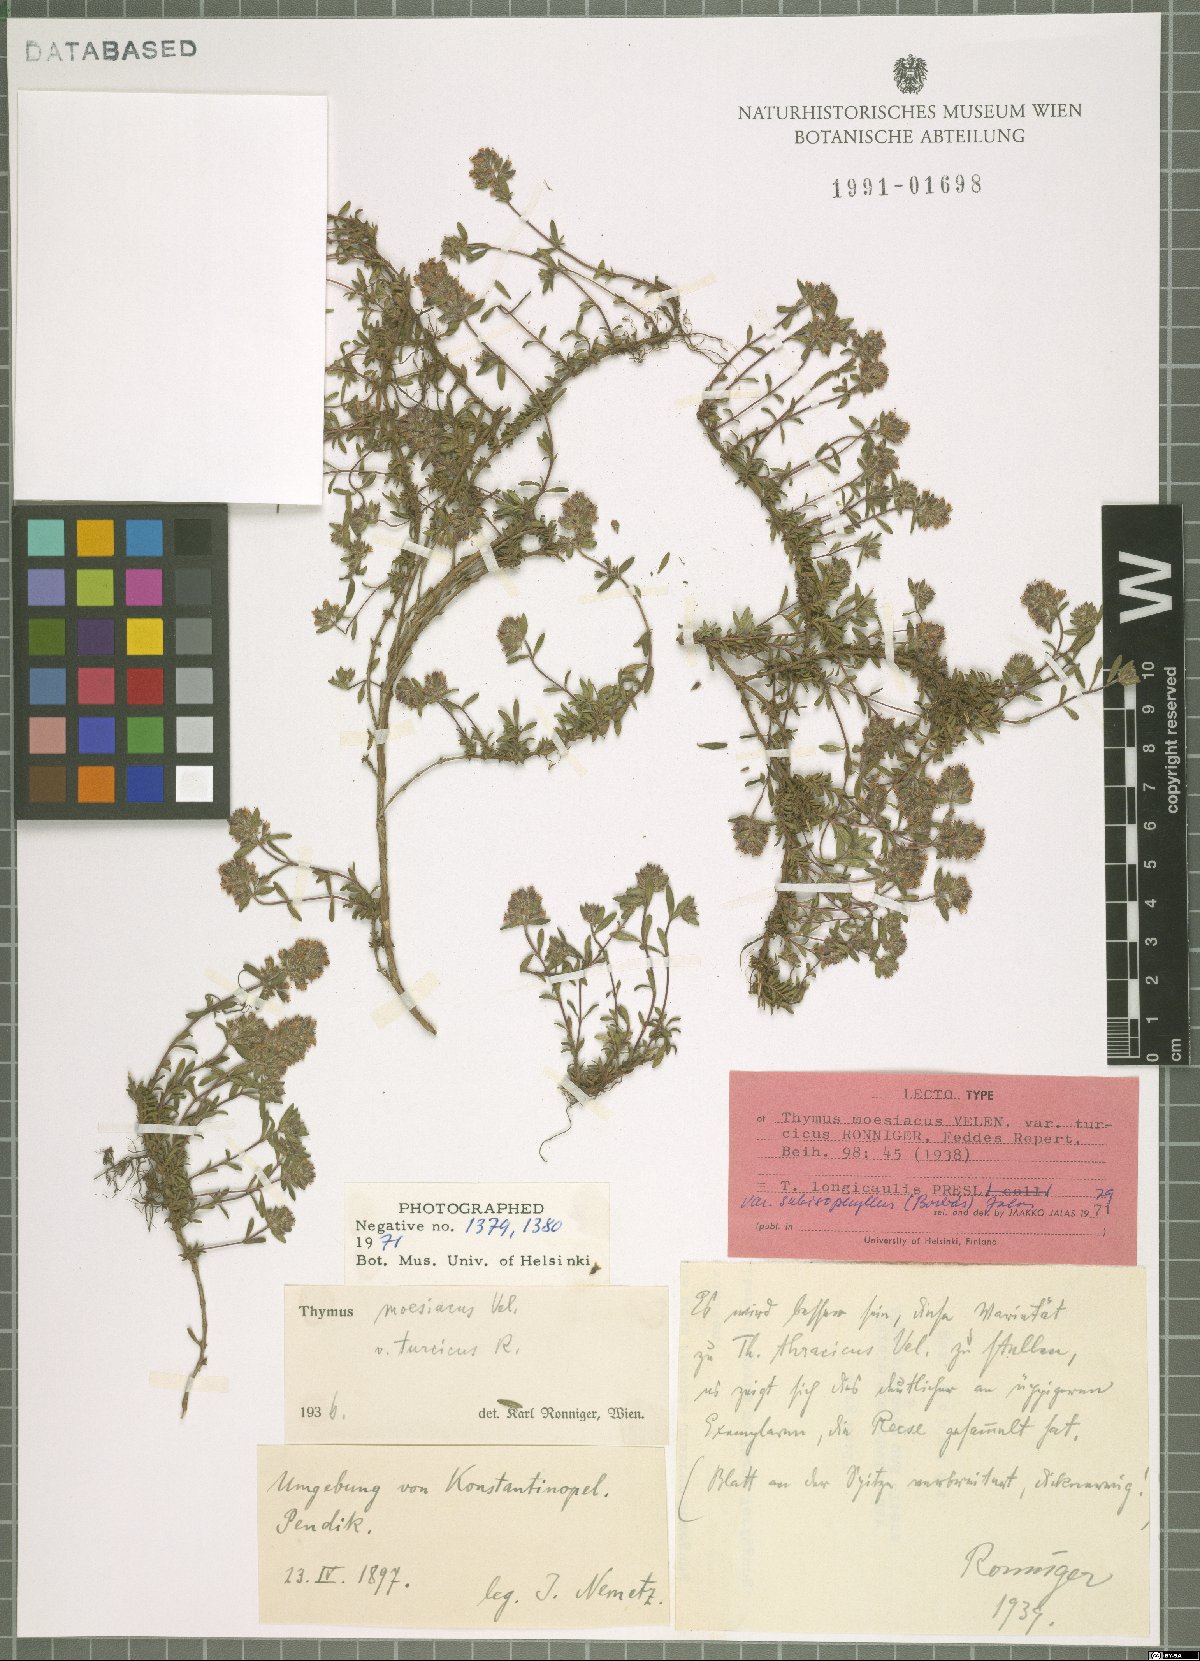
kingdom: Plantae
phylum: Tracheophyta
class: Magnoliopsida
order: Lamiales
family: Lamiaceae
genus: Thymus
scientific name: Thymus longicaulis
